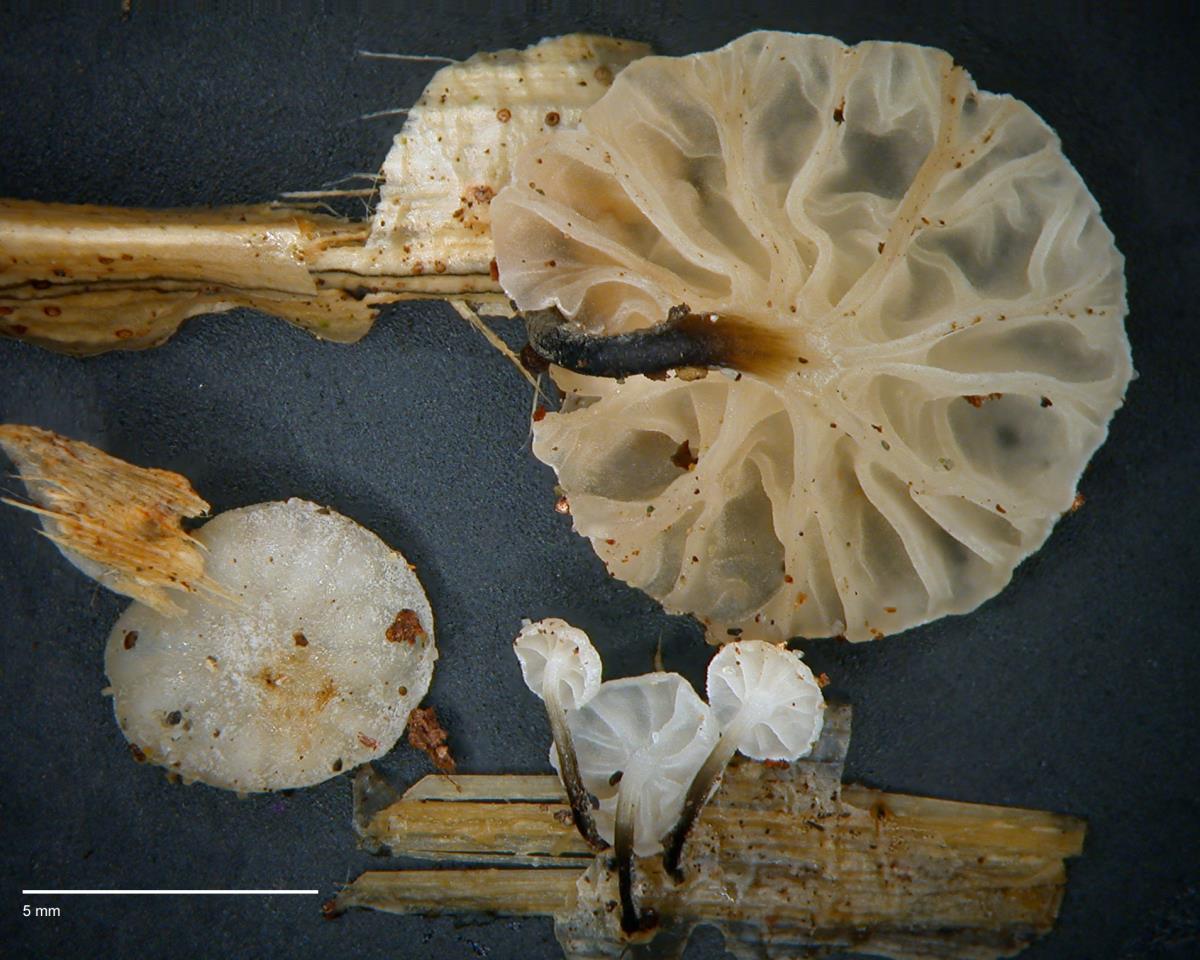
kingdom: Fungi
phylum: Basidiomycota
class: Agaricomycetes
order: Agaricales
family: Marasmiaceae
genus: Campanella
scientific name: Campanella
